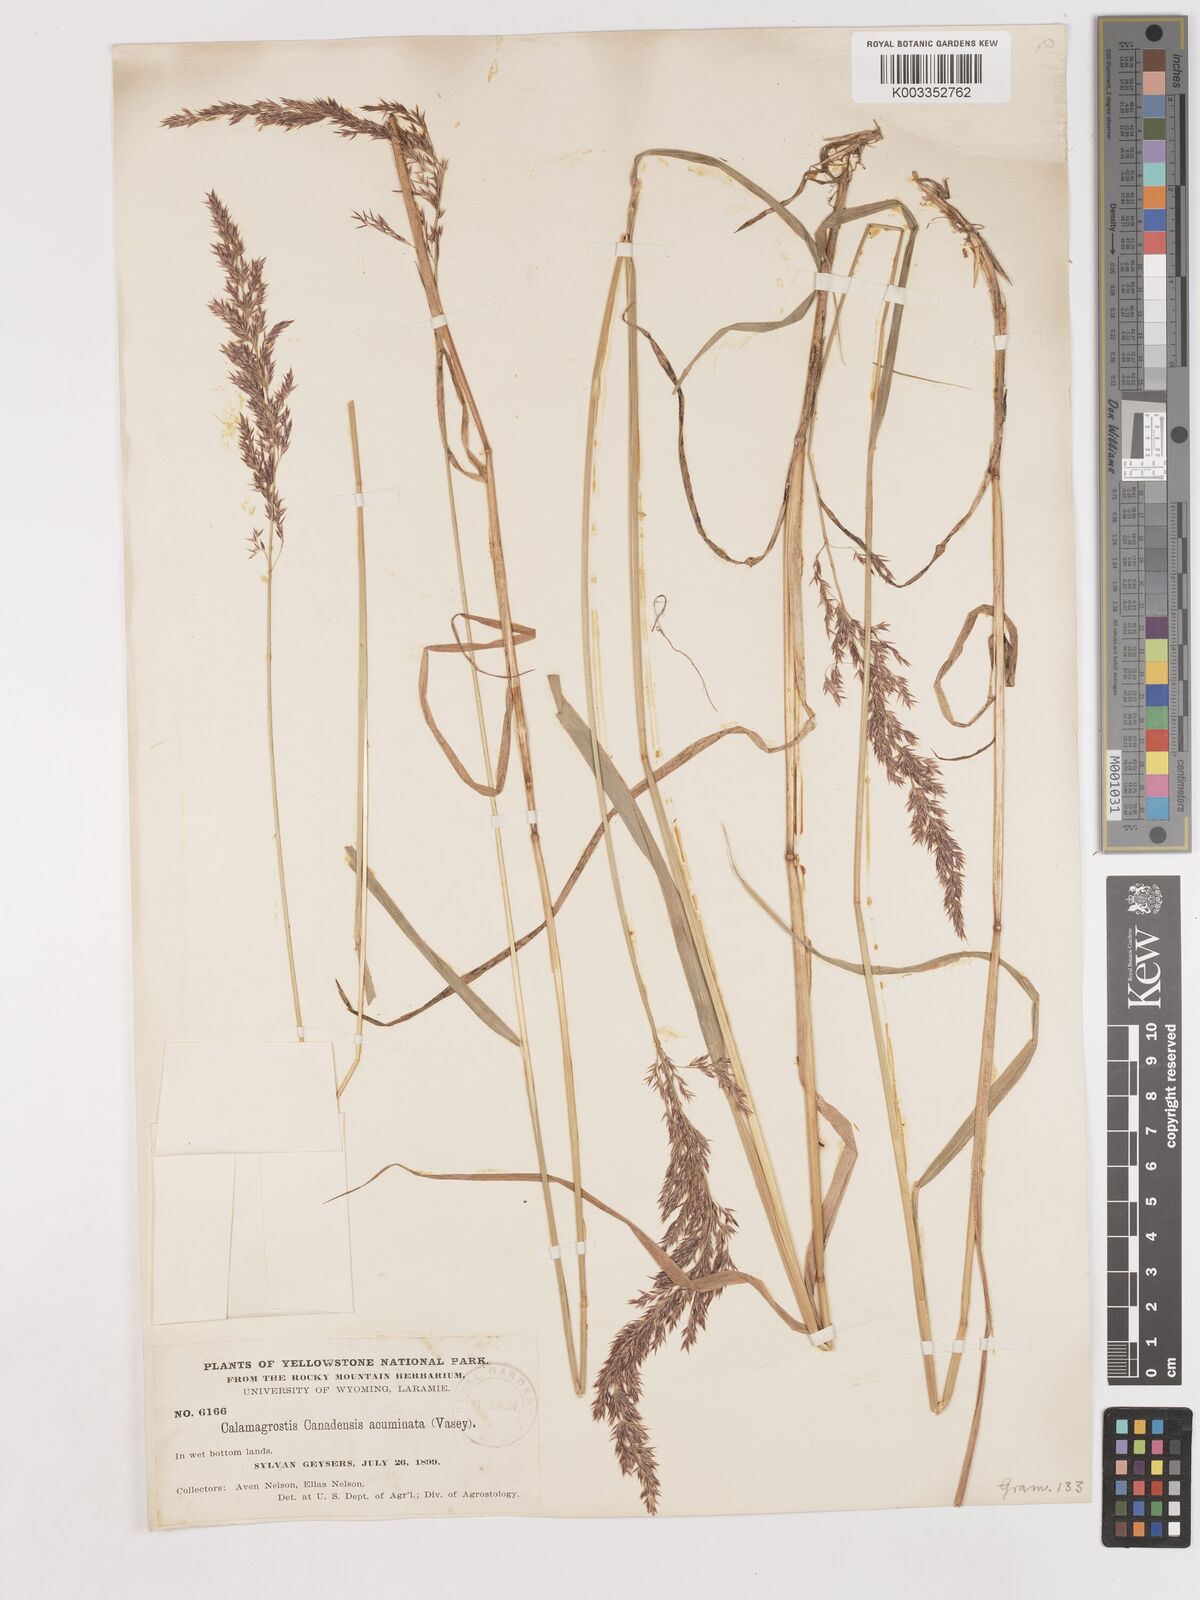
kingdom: Plantae
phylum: Tracheophyta
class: Liliopsida
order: Poales
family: Poaceae
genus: Calamagrostis
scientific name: Calamagrostis canadensis
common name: Canada bluejoint
